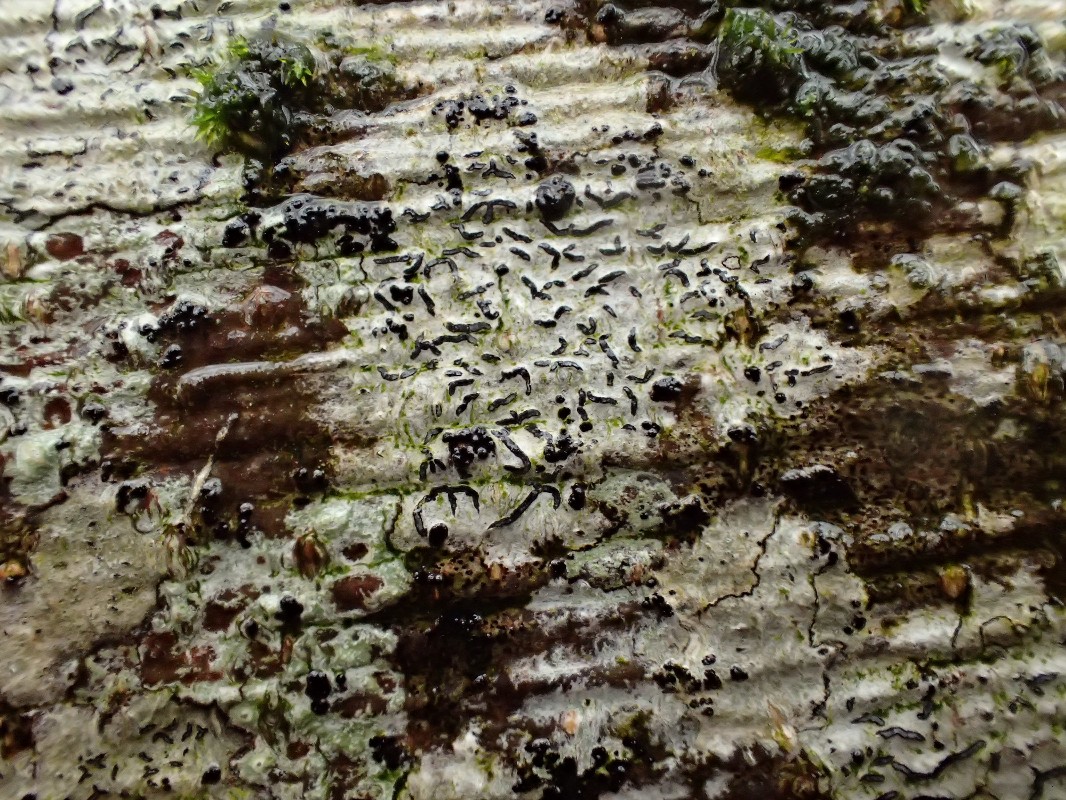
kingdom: Fungi
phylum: Ascomycota
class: Lecanoromycetes
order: Ostropales
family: Graphidaceae
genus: Graphis
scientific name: Graphis scripta
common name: almindelig skriftlav
